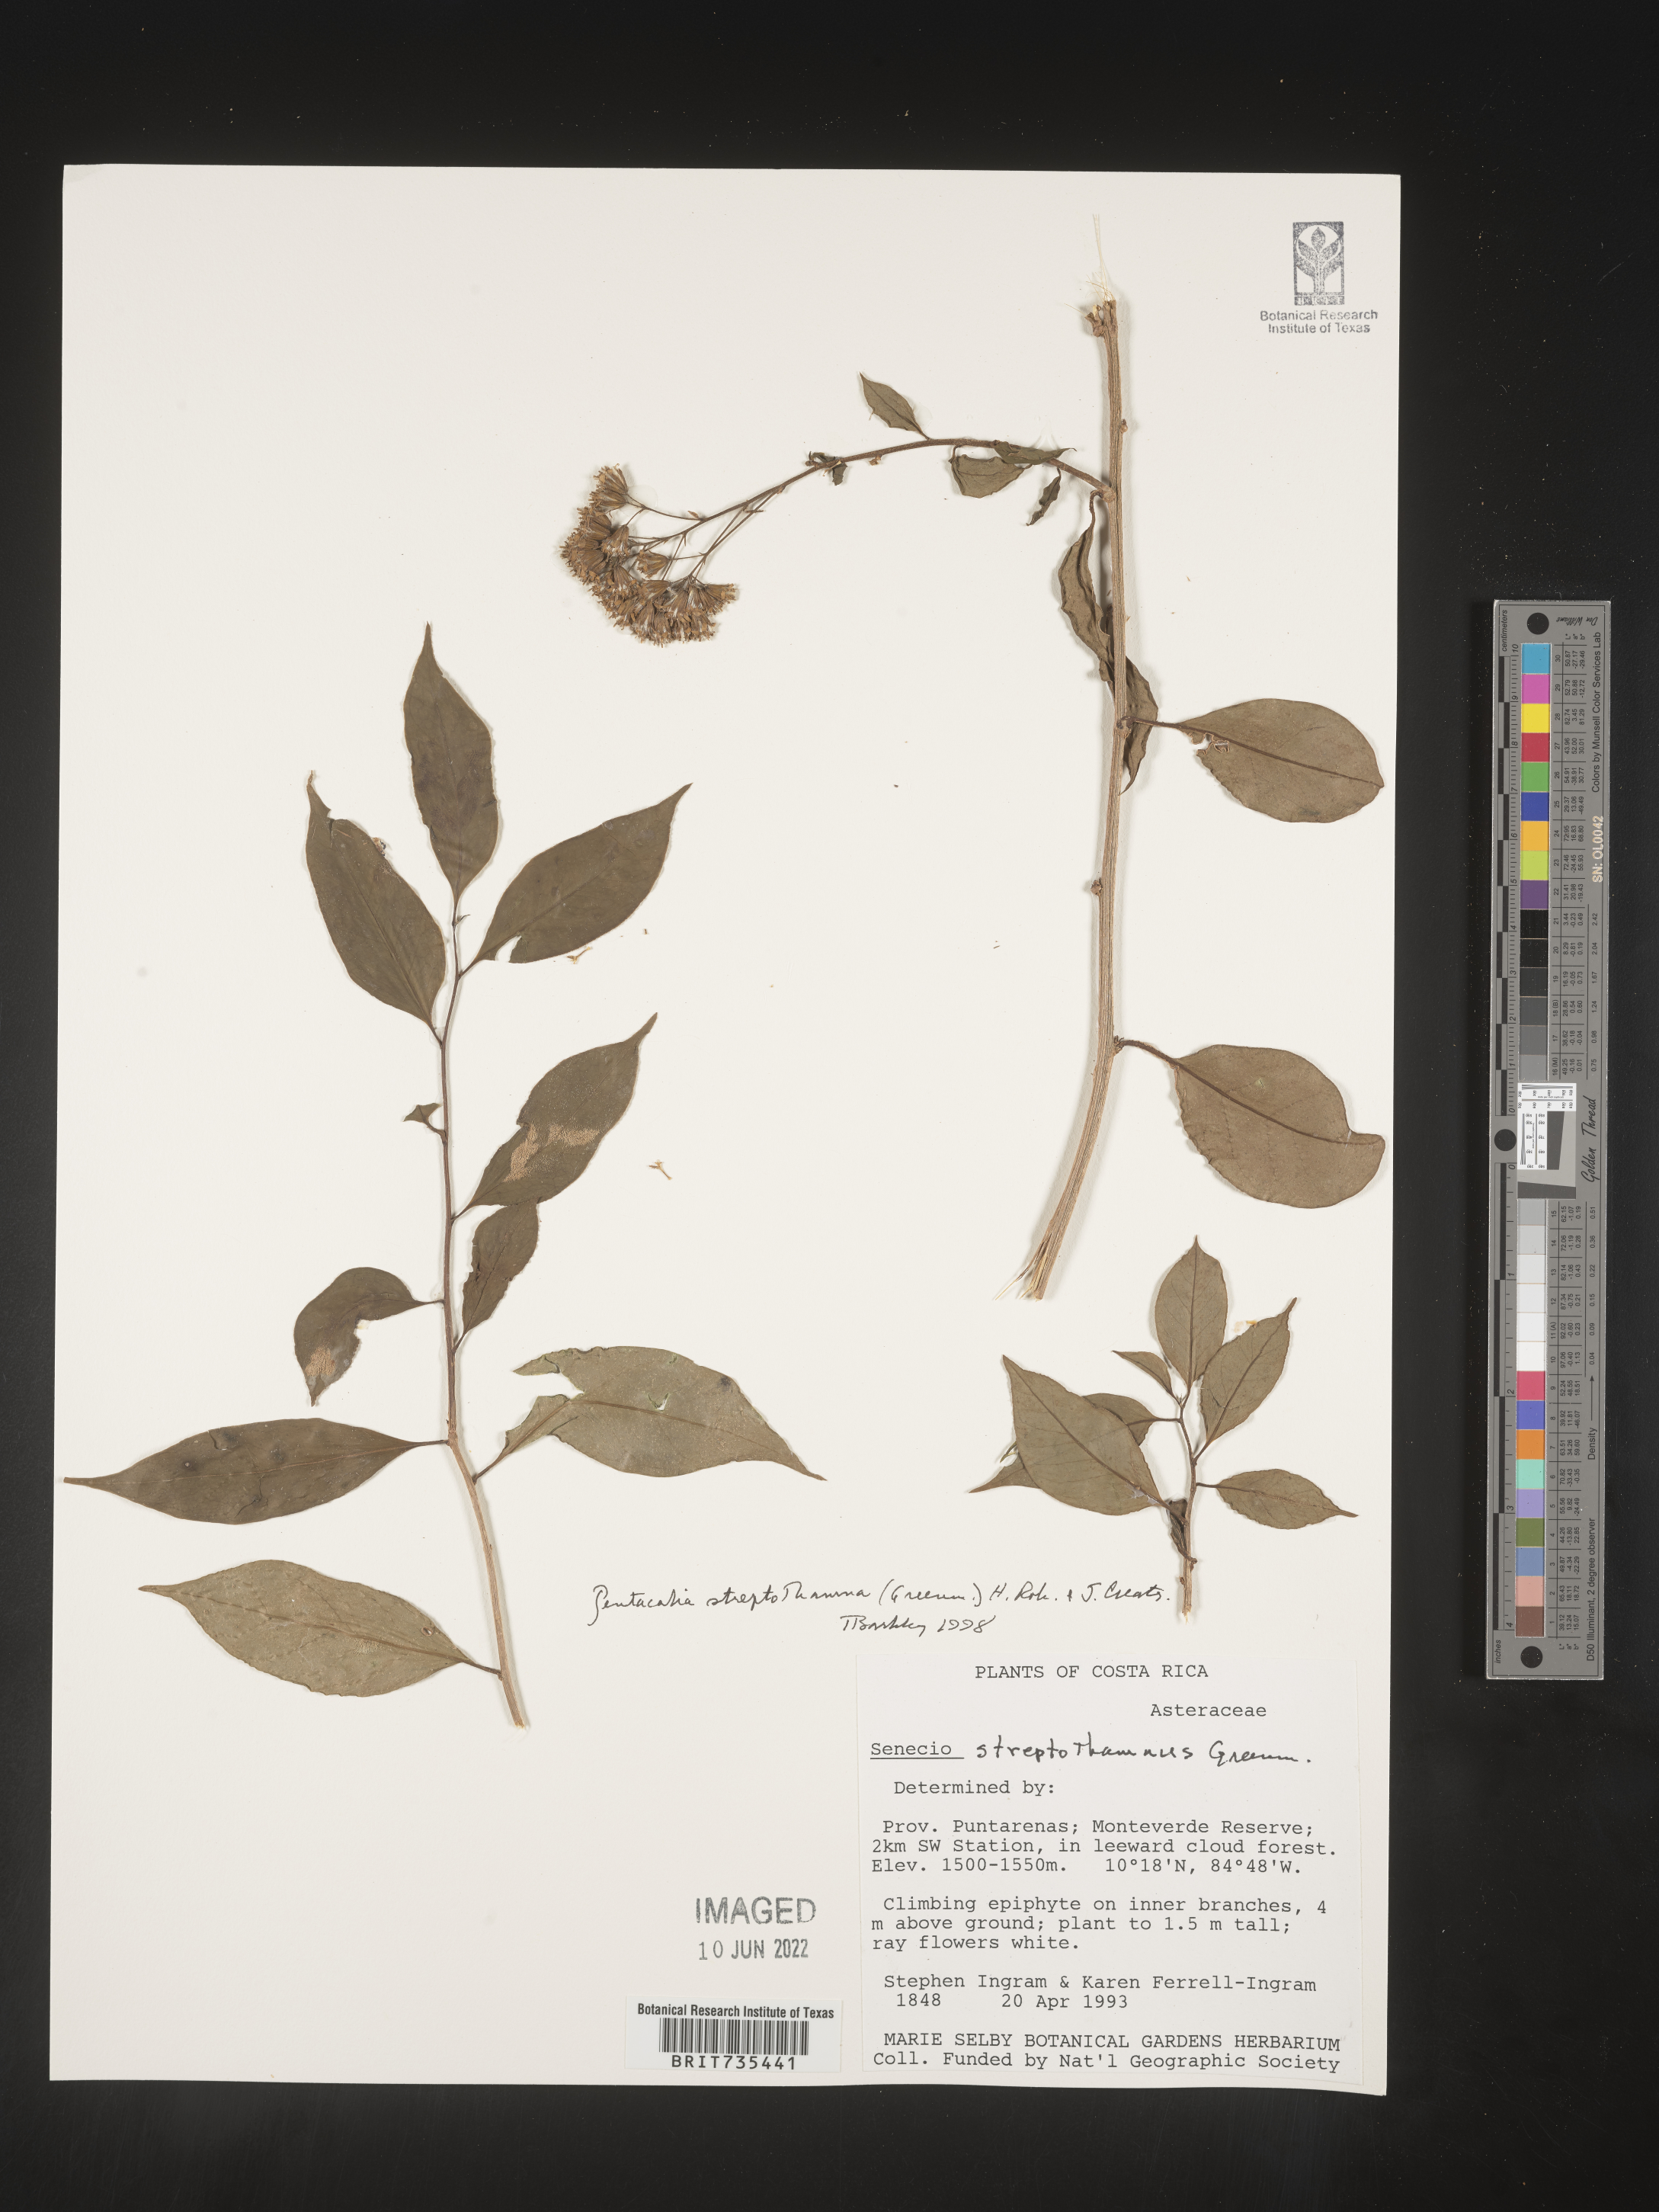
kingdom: Plantae
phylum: Tracheophyta
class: Magnoliopsida
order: Asterales
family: Asteraceae
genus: Pentacalia
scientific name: Pentacalia
